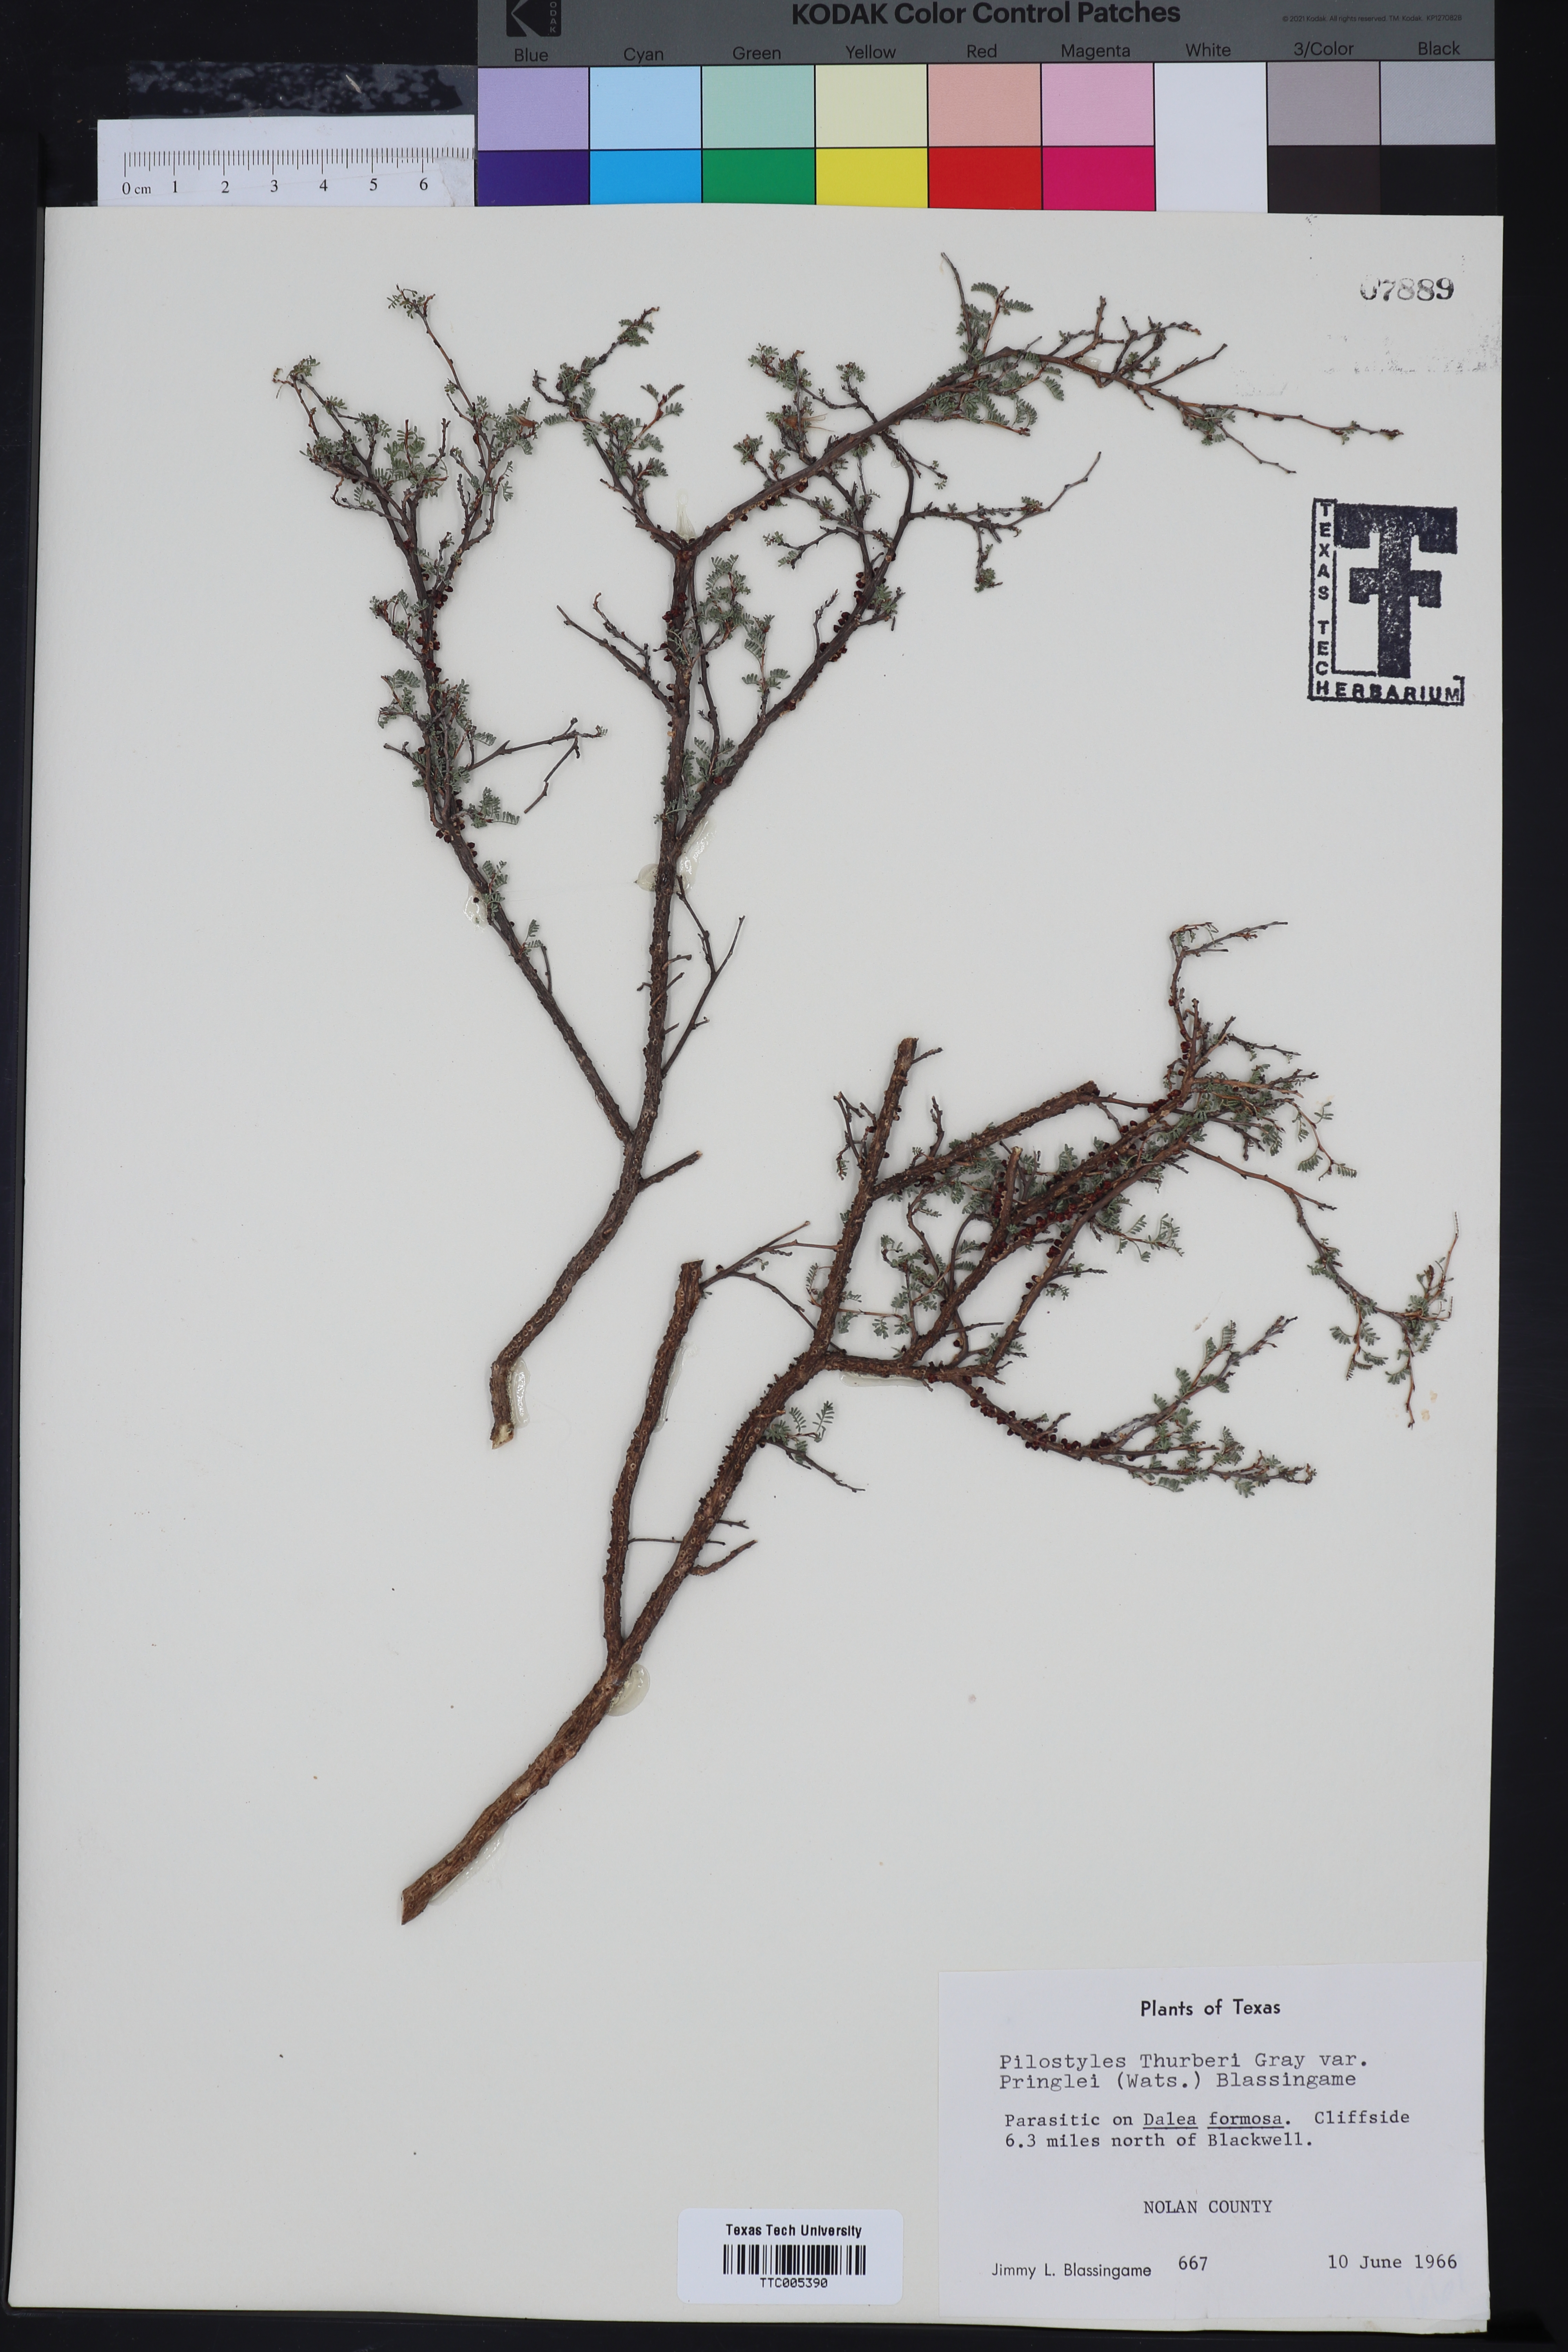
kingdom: Plantae
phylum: Tracheophyta
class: Magnoliopsida
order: Cucurbitales
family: Apodanthaceae
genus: Pilostyles
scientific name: Pilostyles thurberi
